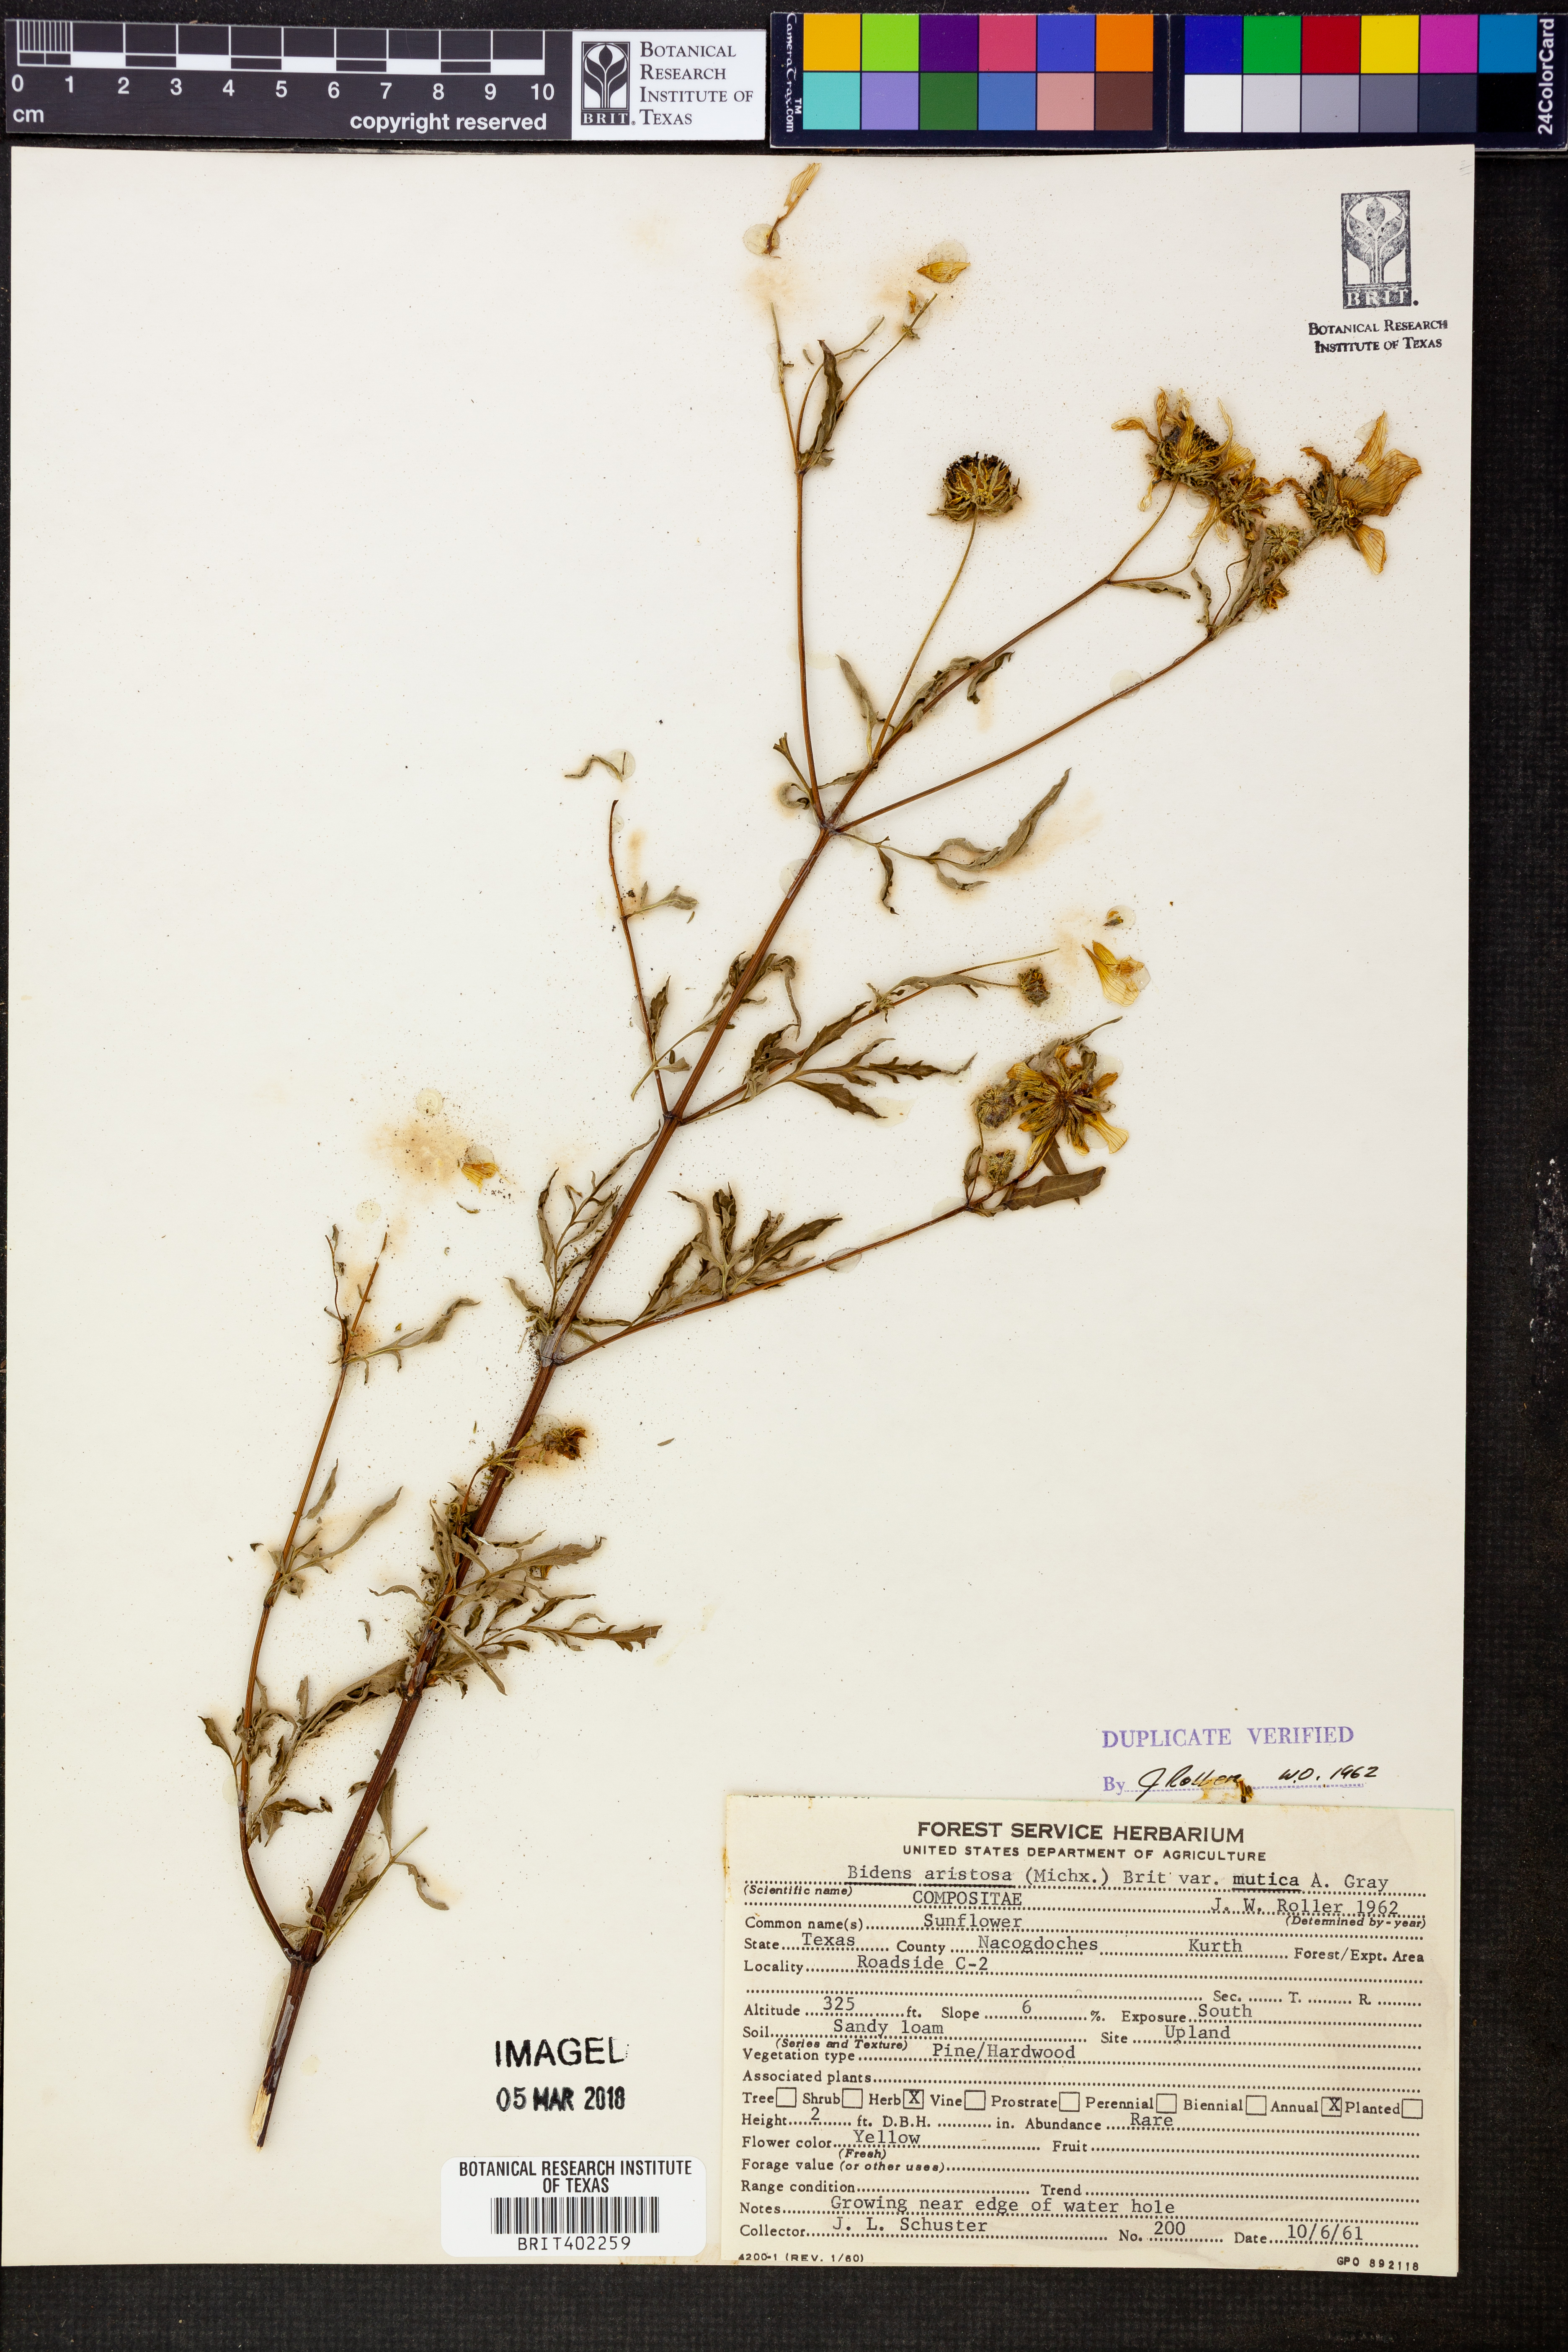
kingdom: Plantae
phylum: Tracheophyta
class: Magnoliopsida
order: Asterales
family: Asteraceae
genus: Bidens
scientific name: Bidens aristosa
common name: Western tickseed
